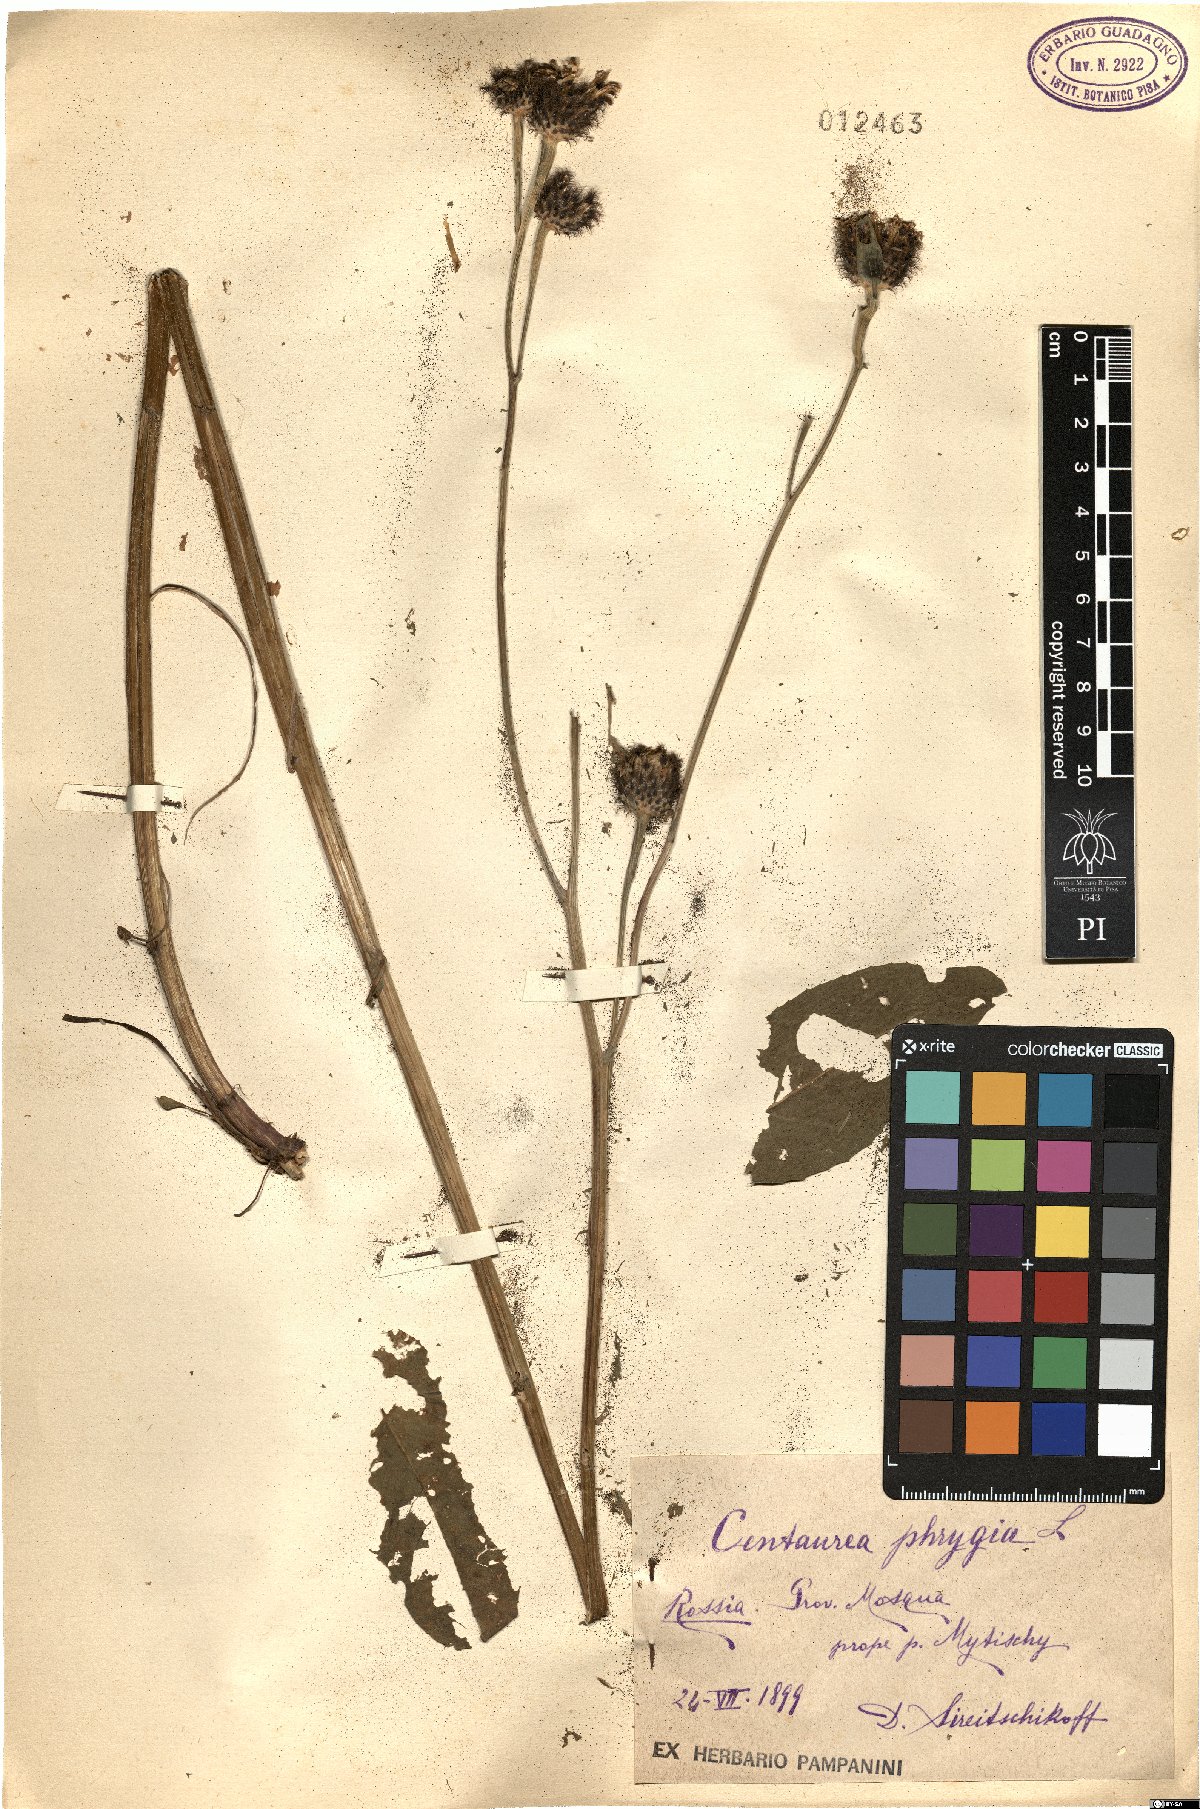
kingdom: Plantae
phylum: Tracheophyta
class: Magnoliopsida
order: Asterales
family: Asteraceae
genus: Centaurea
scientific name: Centaurea phrygia
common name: Wig knapweed
